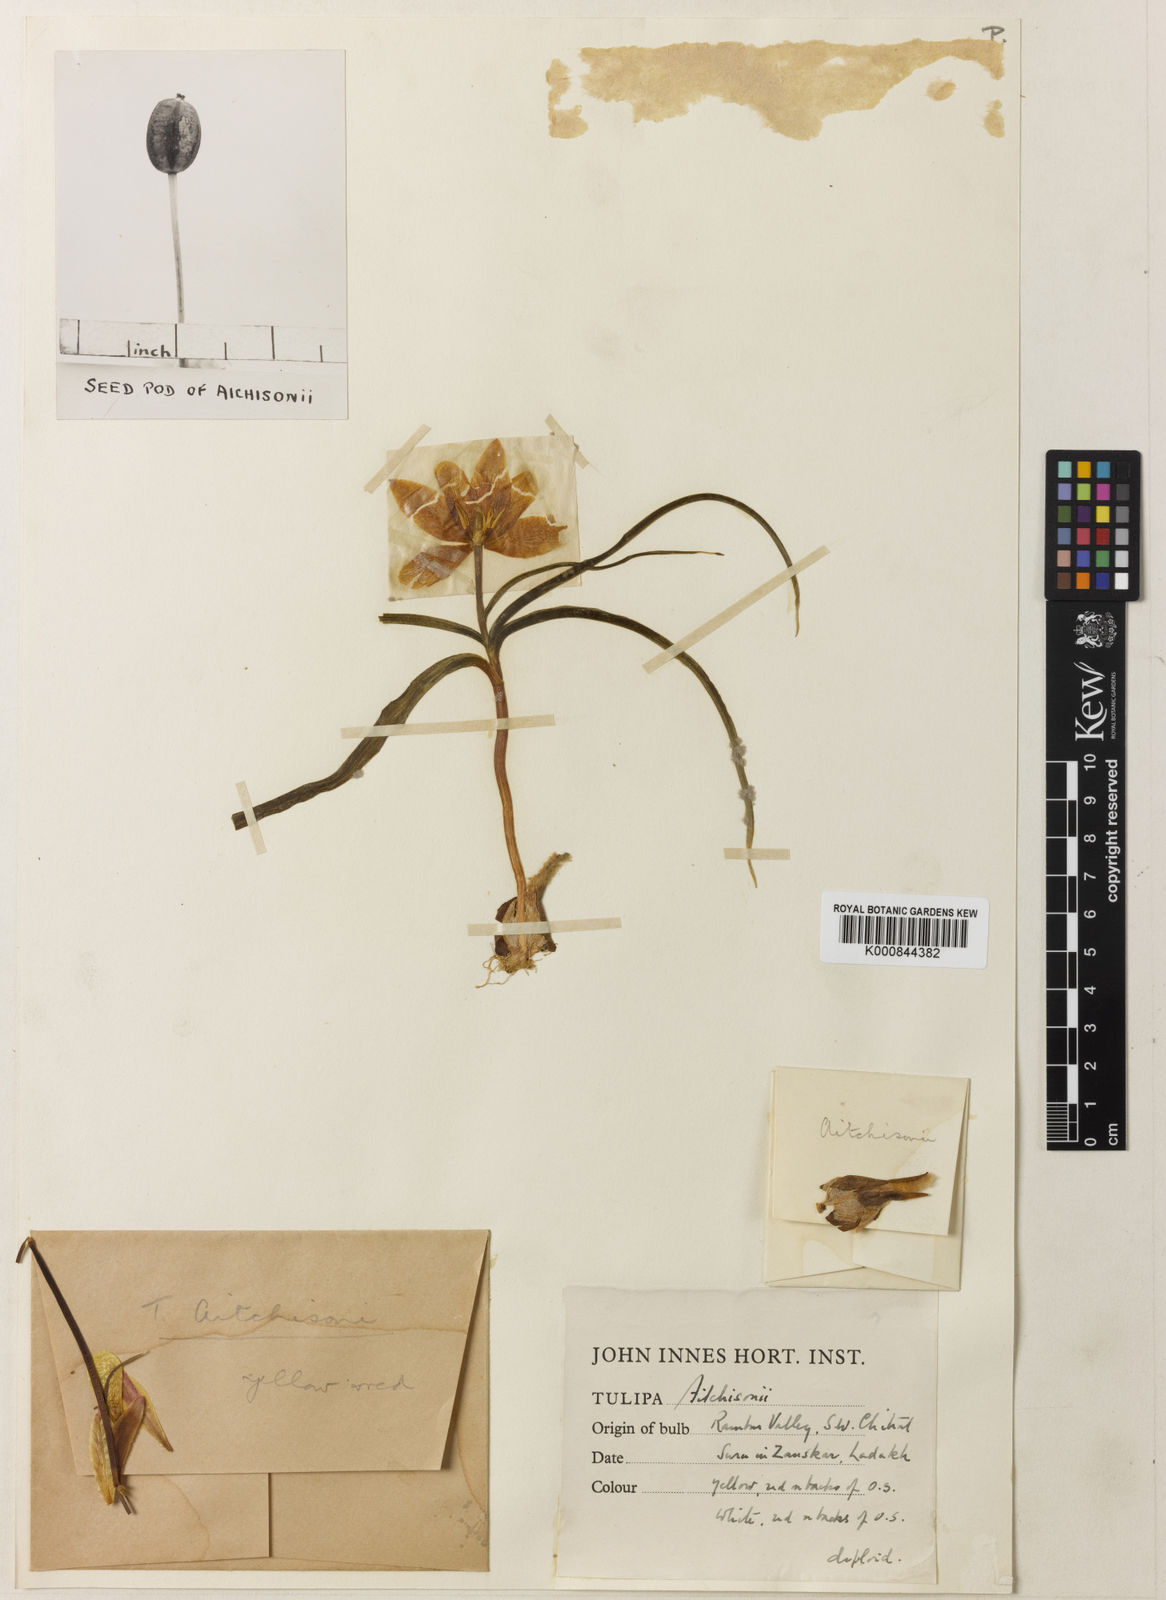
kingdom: Plantae
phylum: Tracheophyta
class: Liliopsida
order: Liliales
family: Liliaceae
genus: Tulipa
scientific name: Tulipa
